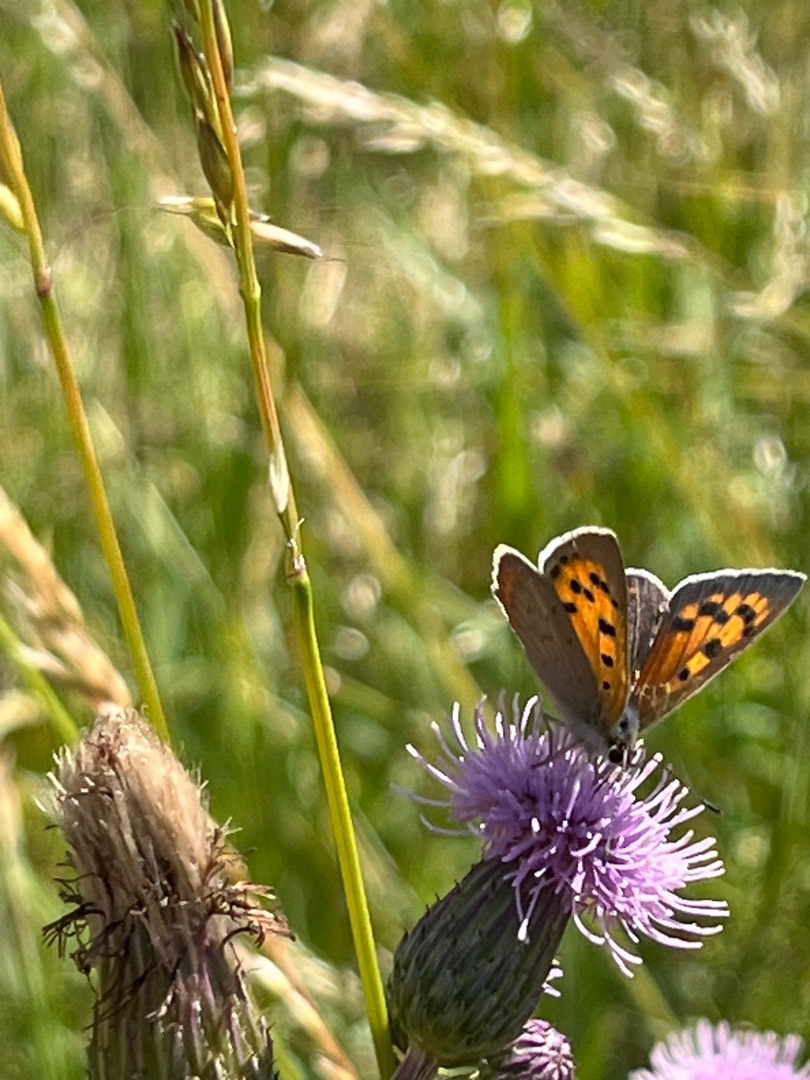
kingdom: Animalia
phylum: Arthropoda
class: Insecta
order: Lepidoptera
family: Lycaenidae
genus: Lycaena
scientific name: Lycaena phlaeas
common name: Lille ildfugl
